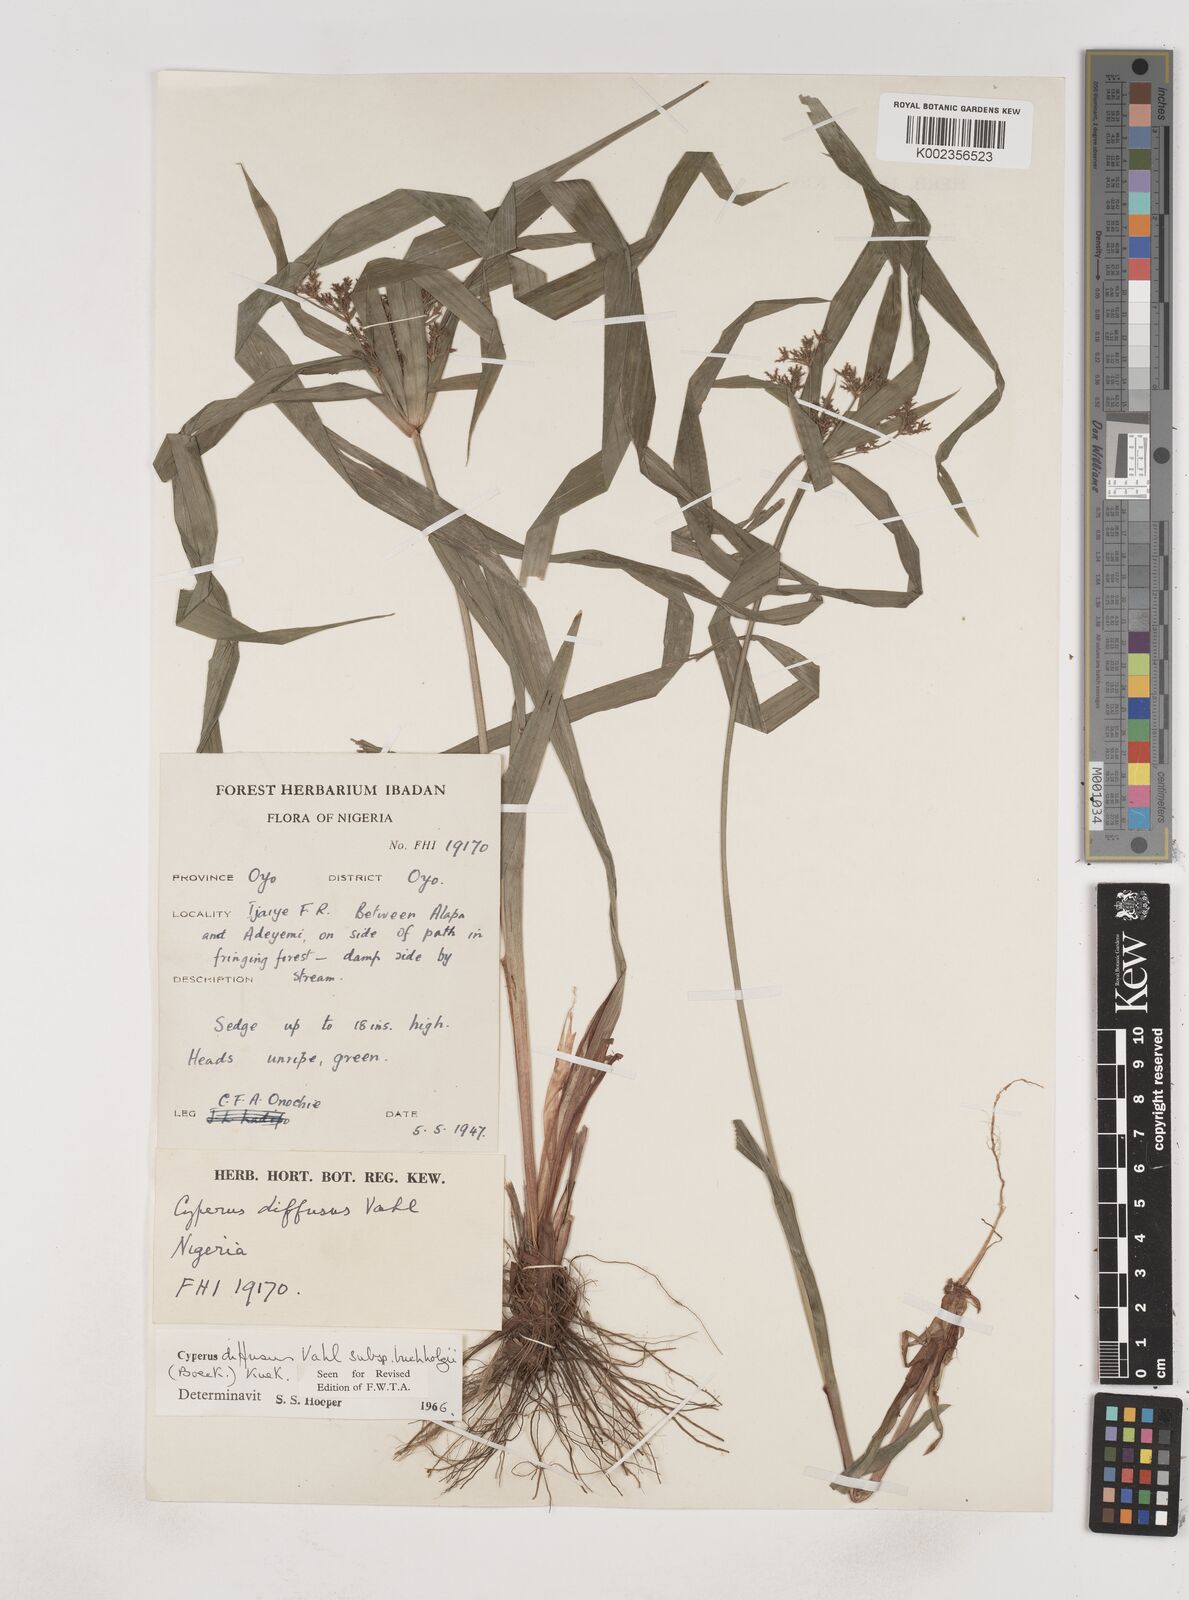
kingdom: Plantae
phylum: Tracheophyta
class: Liliopsida
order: Poales
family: Cyperaceae
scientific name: Cyperaceae
